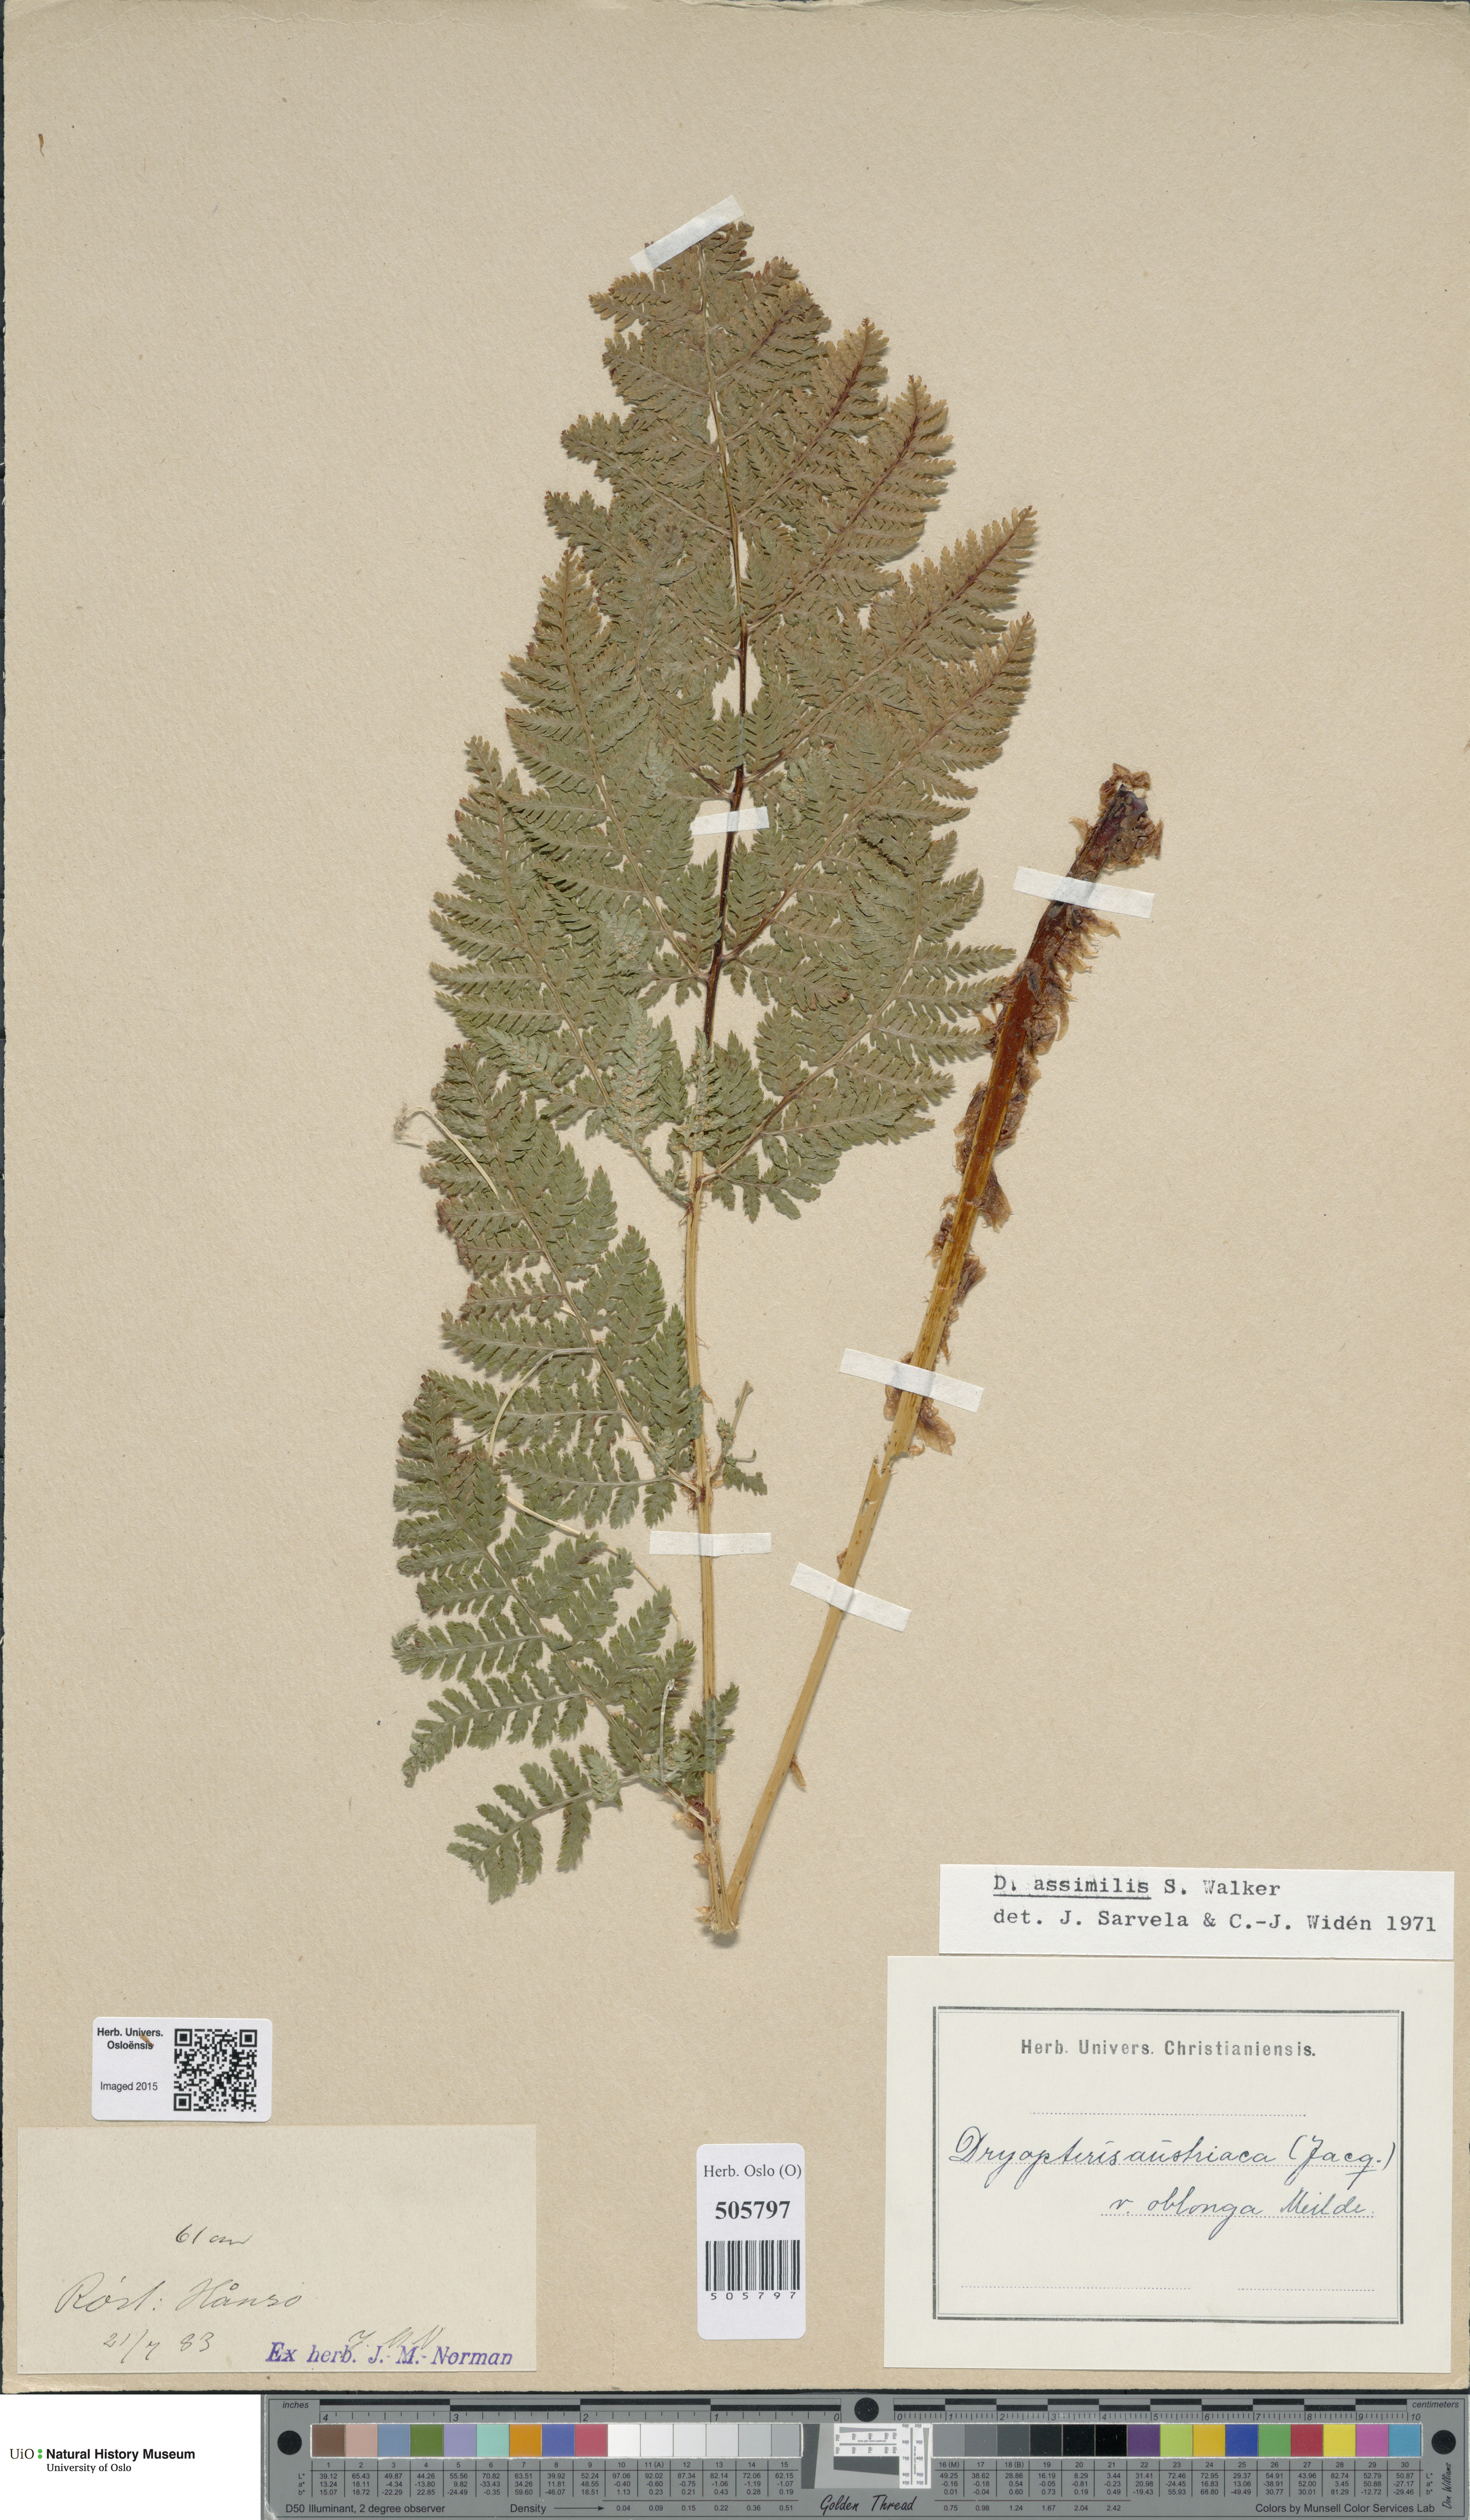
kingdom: Plantae
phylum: Tracheophyta
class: Polypodiopsida
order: Polypodiales
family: Dryopteridaceae
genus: Dryopteris
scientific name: Dryopteris expansa
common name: Northern buckler fern
